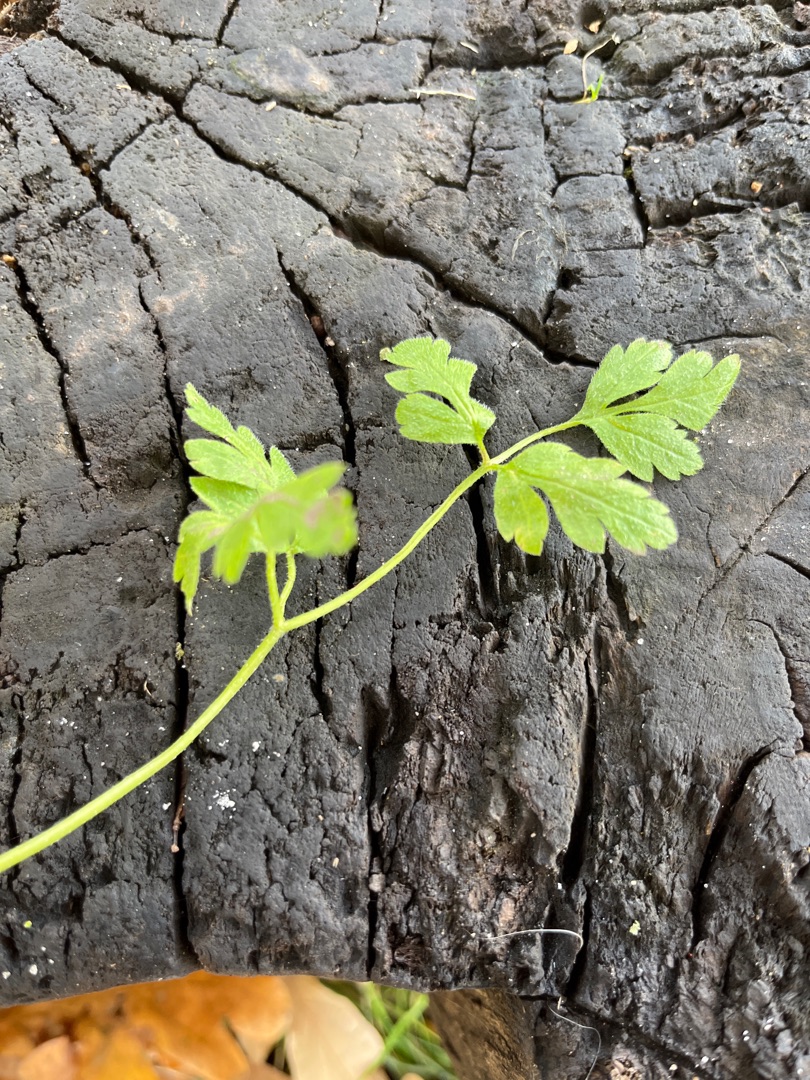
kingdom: Plantae
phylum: Tracheophyta
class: Magnoliopsida
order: Apiales
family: Apiaceae
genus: Chaerophyllum
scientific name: Chaerophyllum temulum
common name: Almindelig hulsvøb
